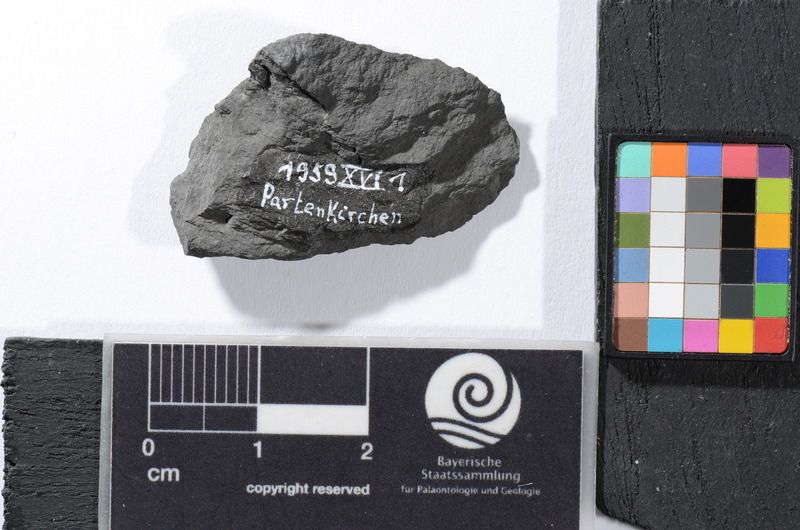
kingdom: Animalia
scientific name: Animalia
